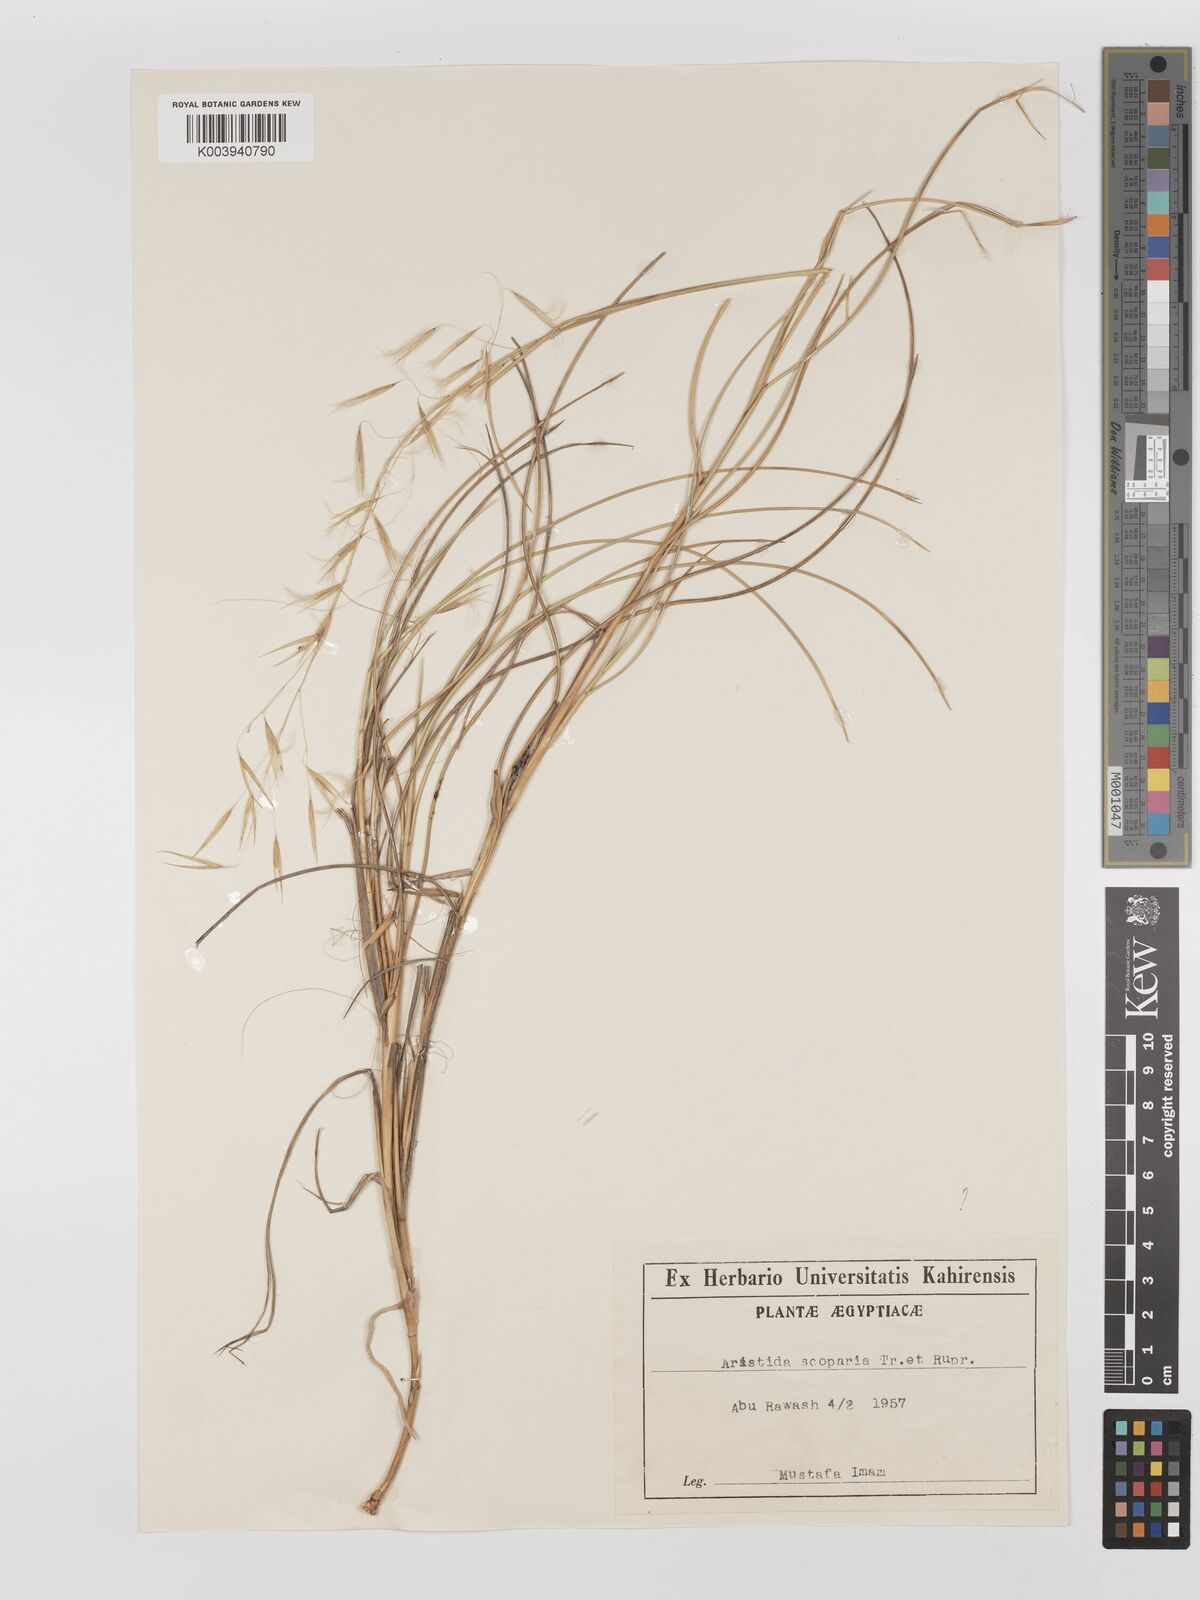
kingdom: Plantae
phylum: Tracheophyta
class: Liliopsida
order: Poales
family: Poaceae
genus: Stipagrostis
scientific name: Stipagrostis scoparia
